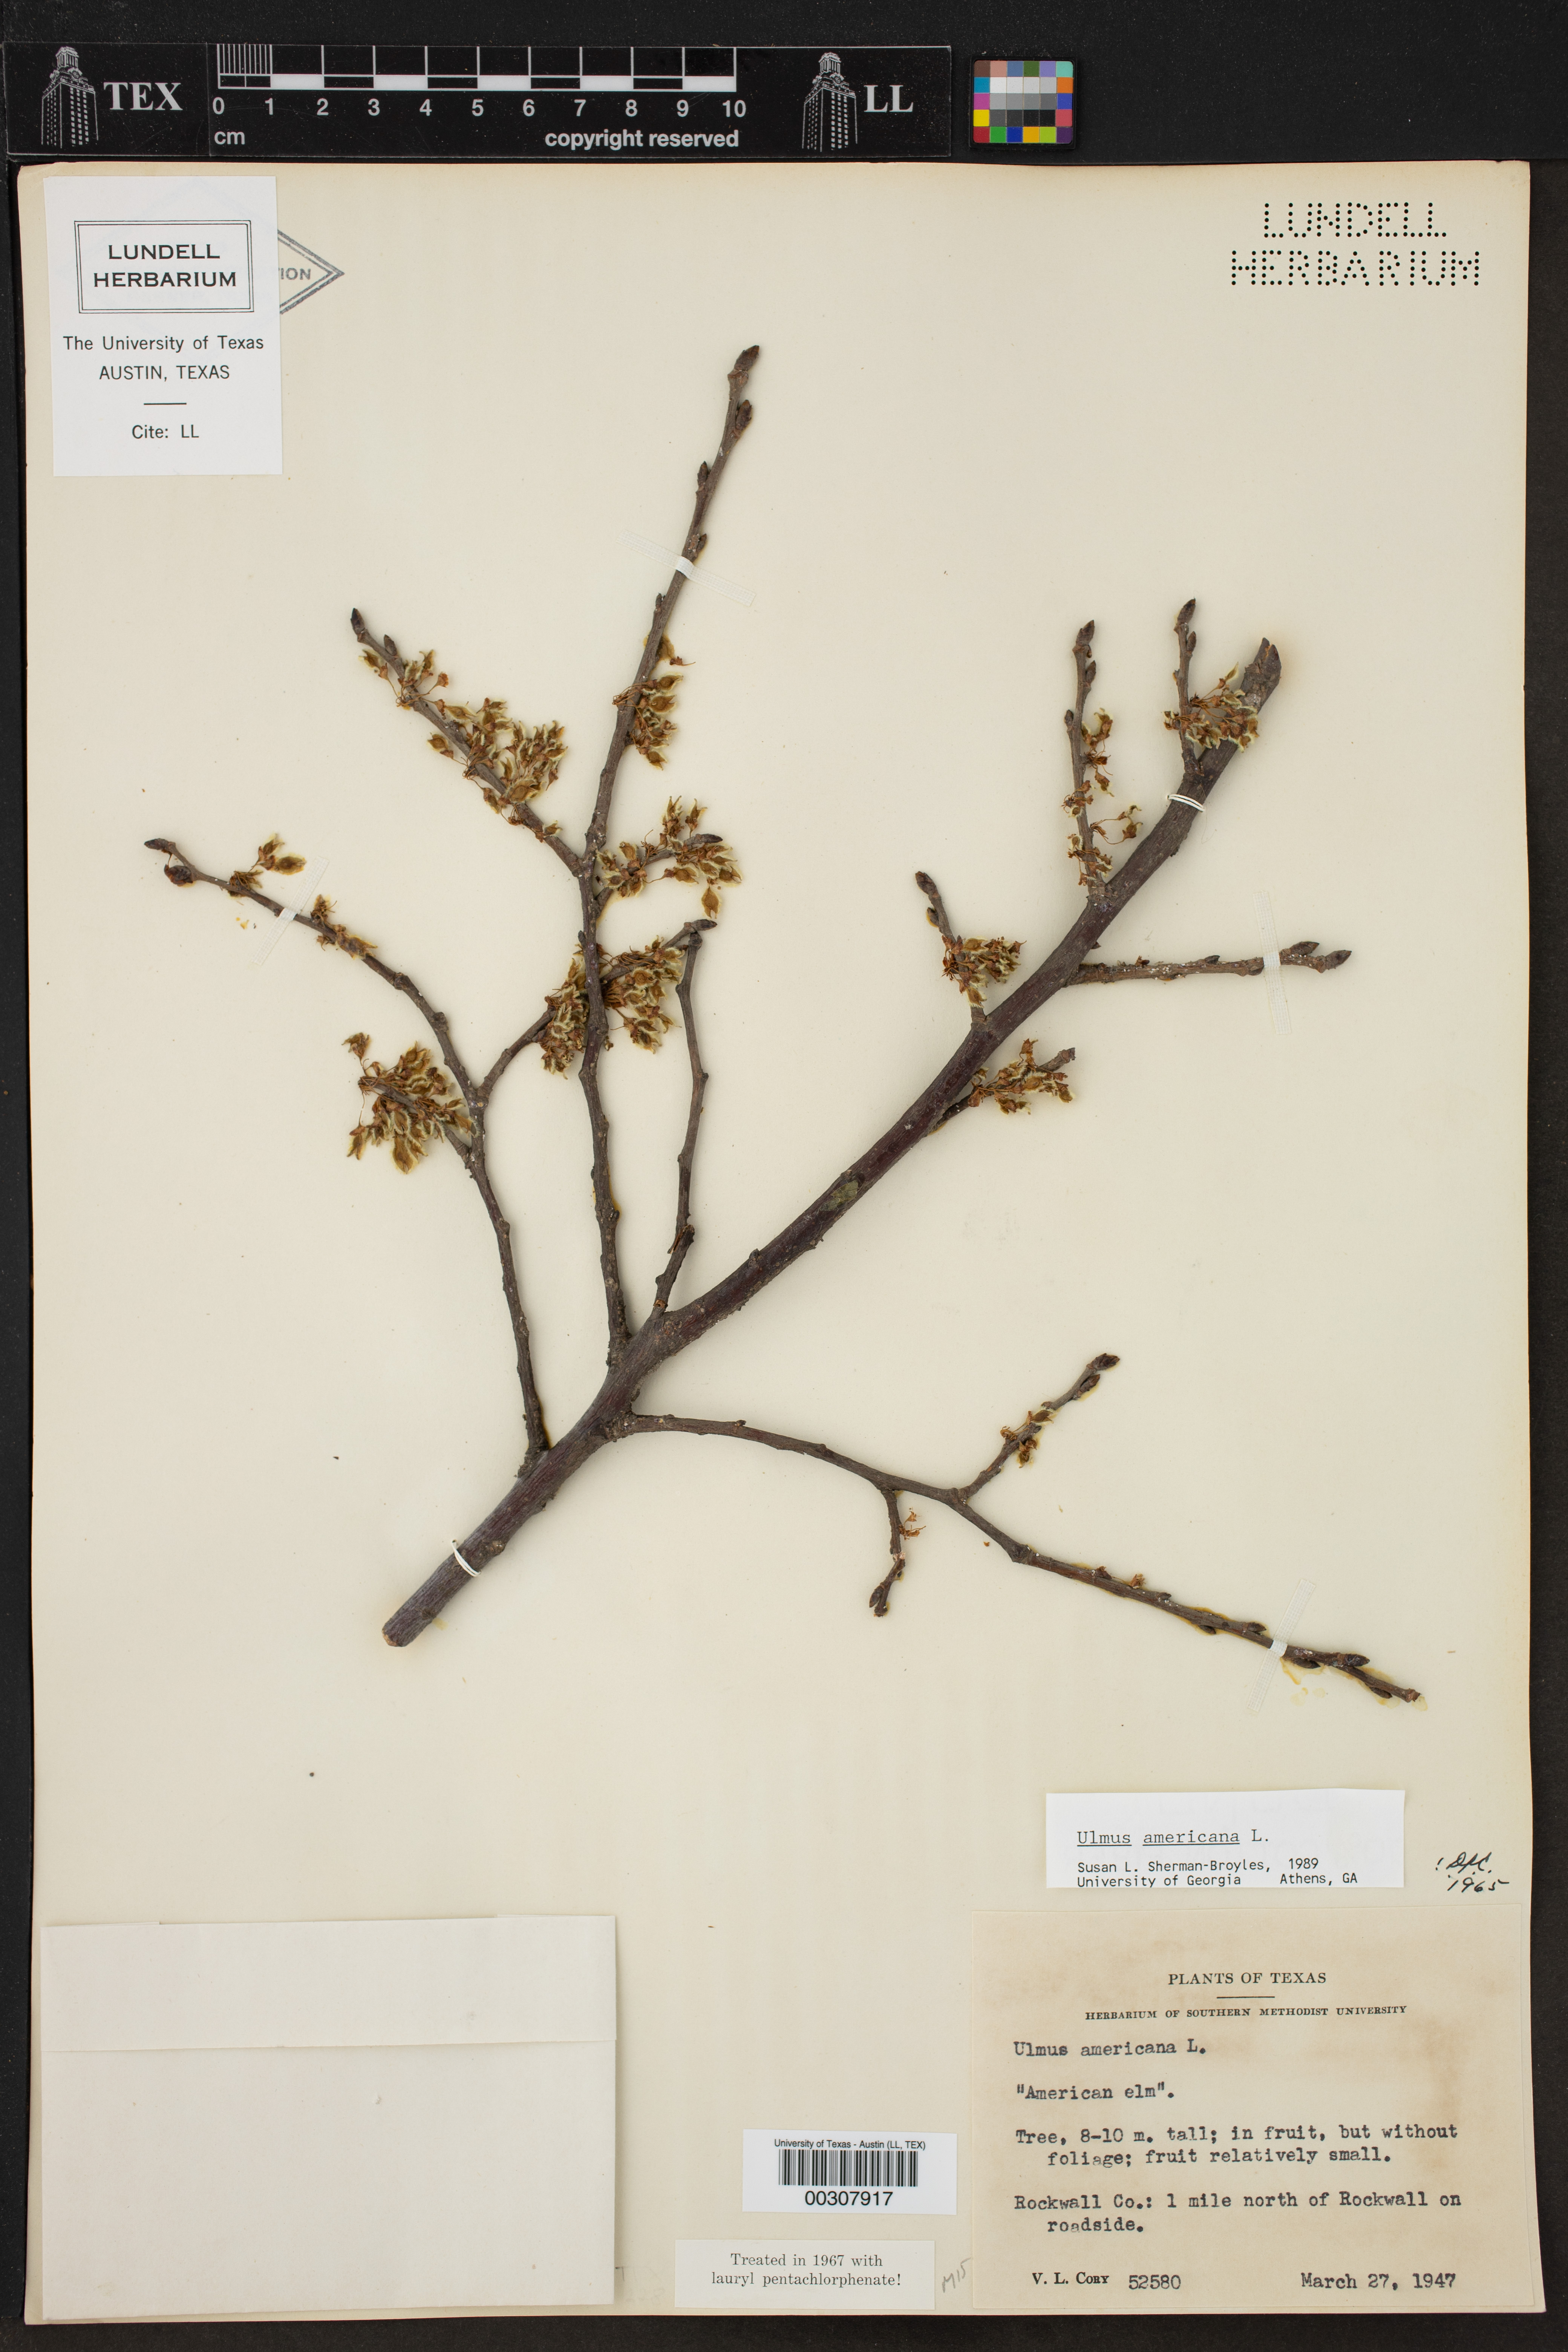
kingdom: Plantae
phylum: Tracheophyta
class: Magnoliopsida
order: Rosales
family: Ulmaceae
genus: Ulmus
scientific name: Ulmus americana
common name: American elm
